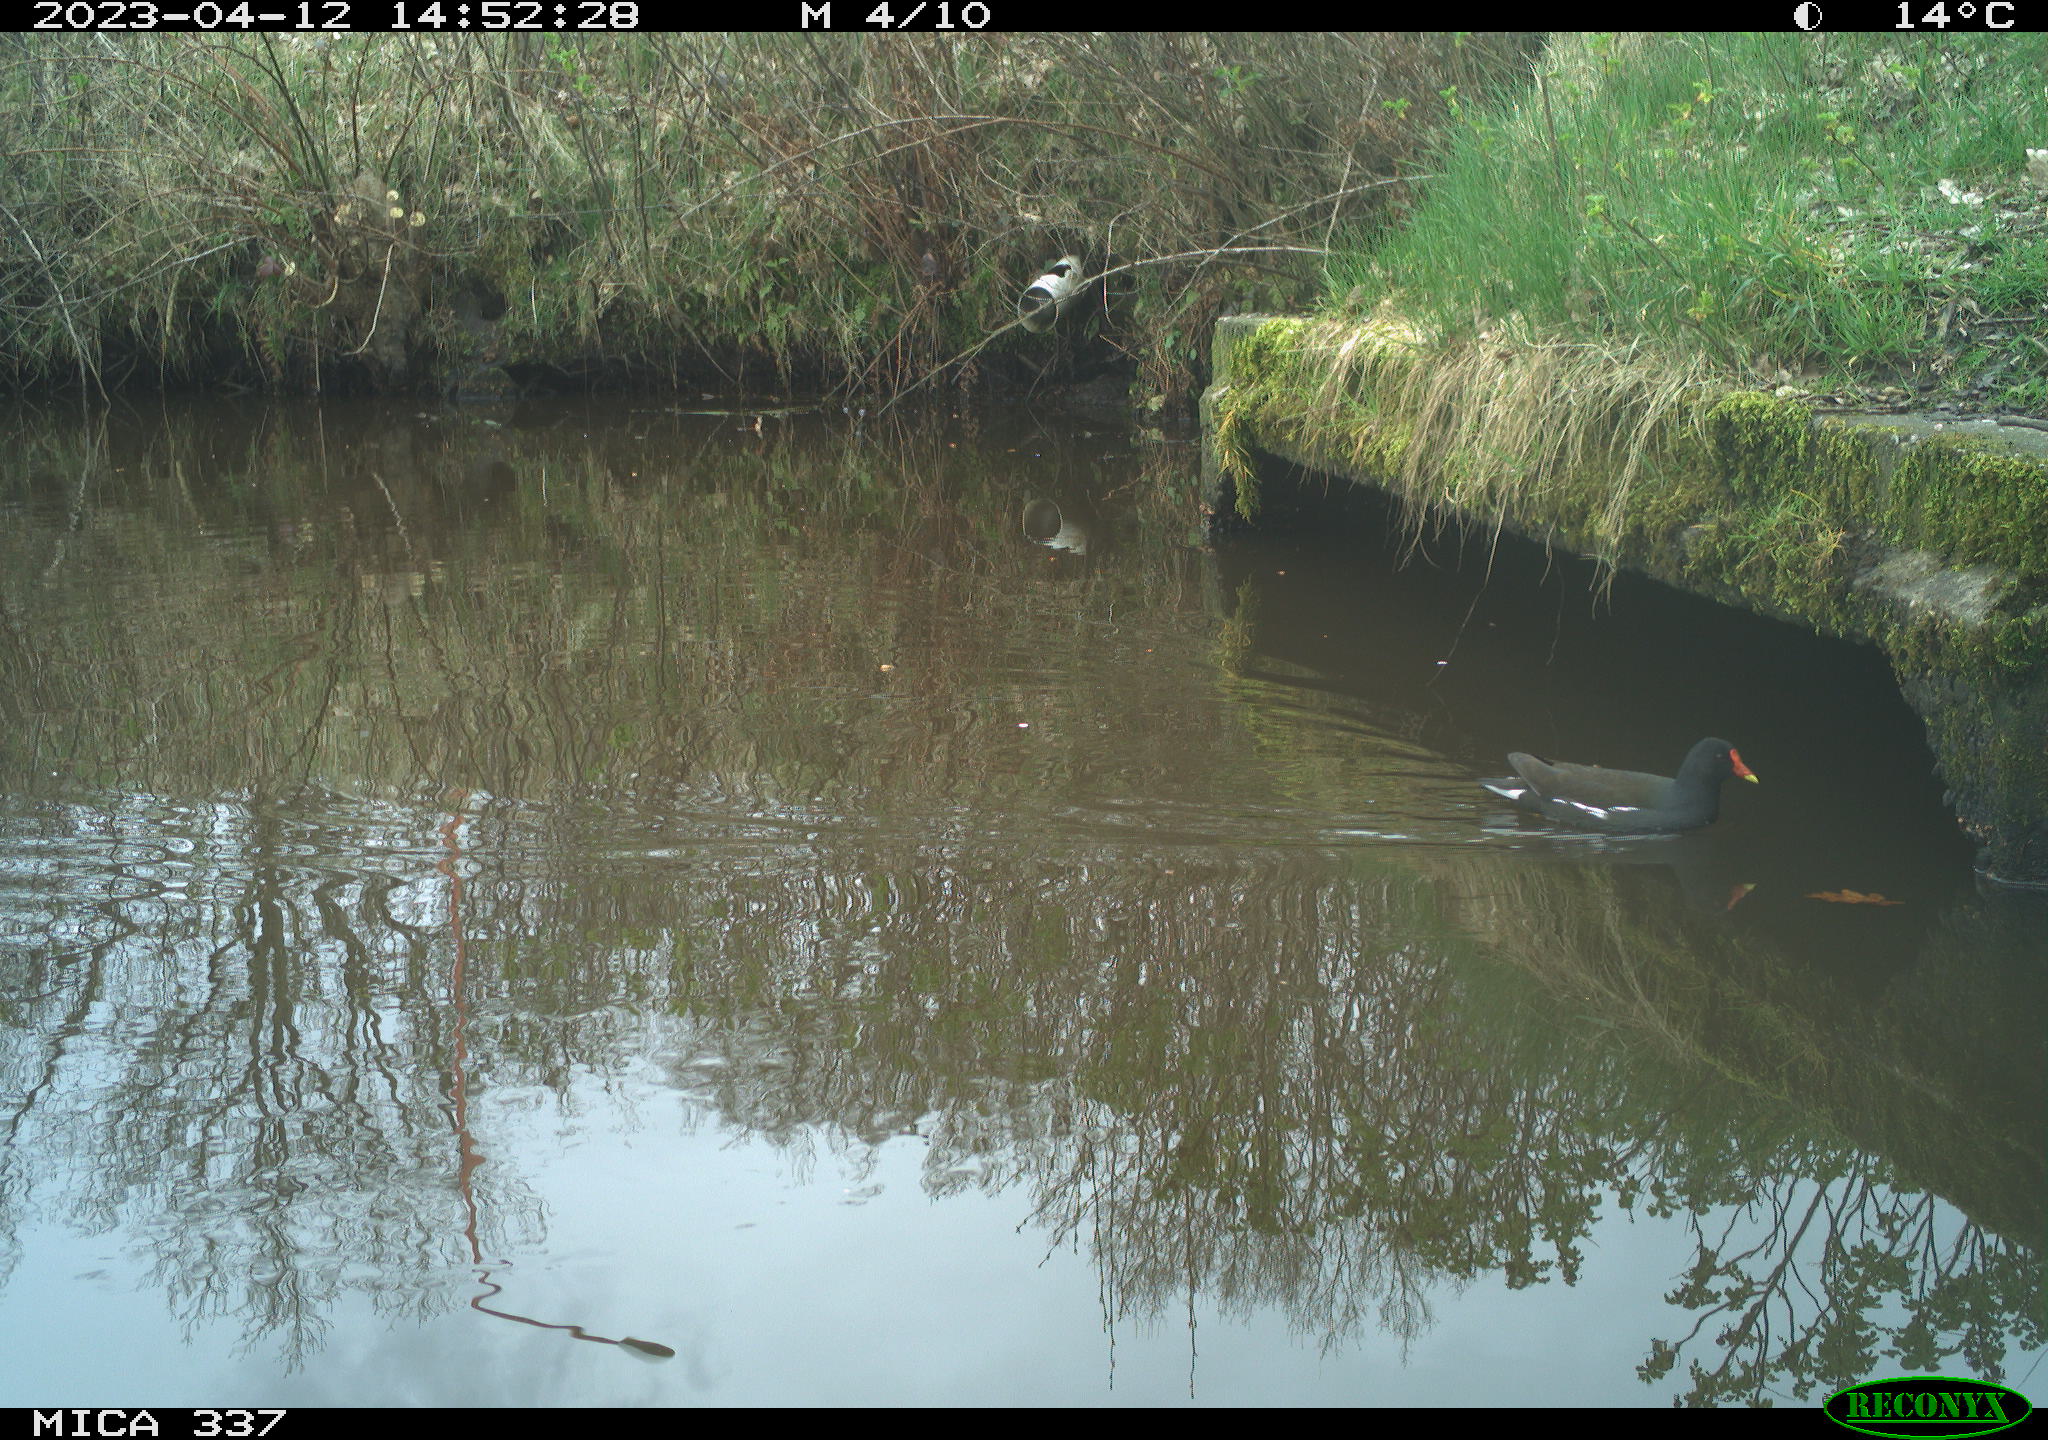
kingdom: Animalia
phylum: Chordata
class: Aves
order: Gruiformes
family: Rallidae
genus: Gallinula
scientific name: Gallinula chloropus
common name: Common moorhen
